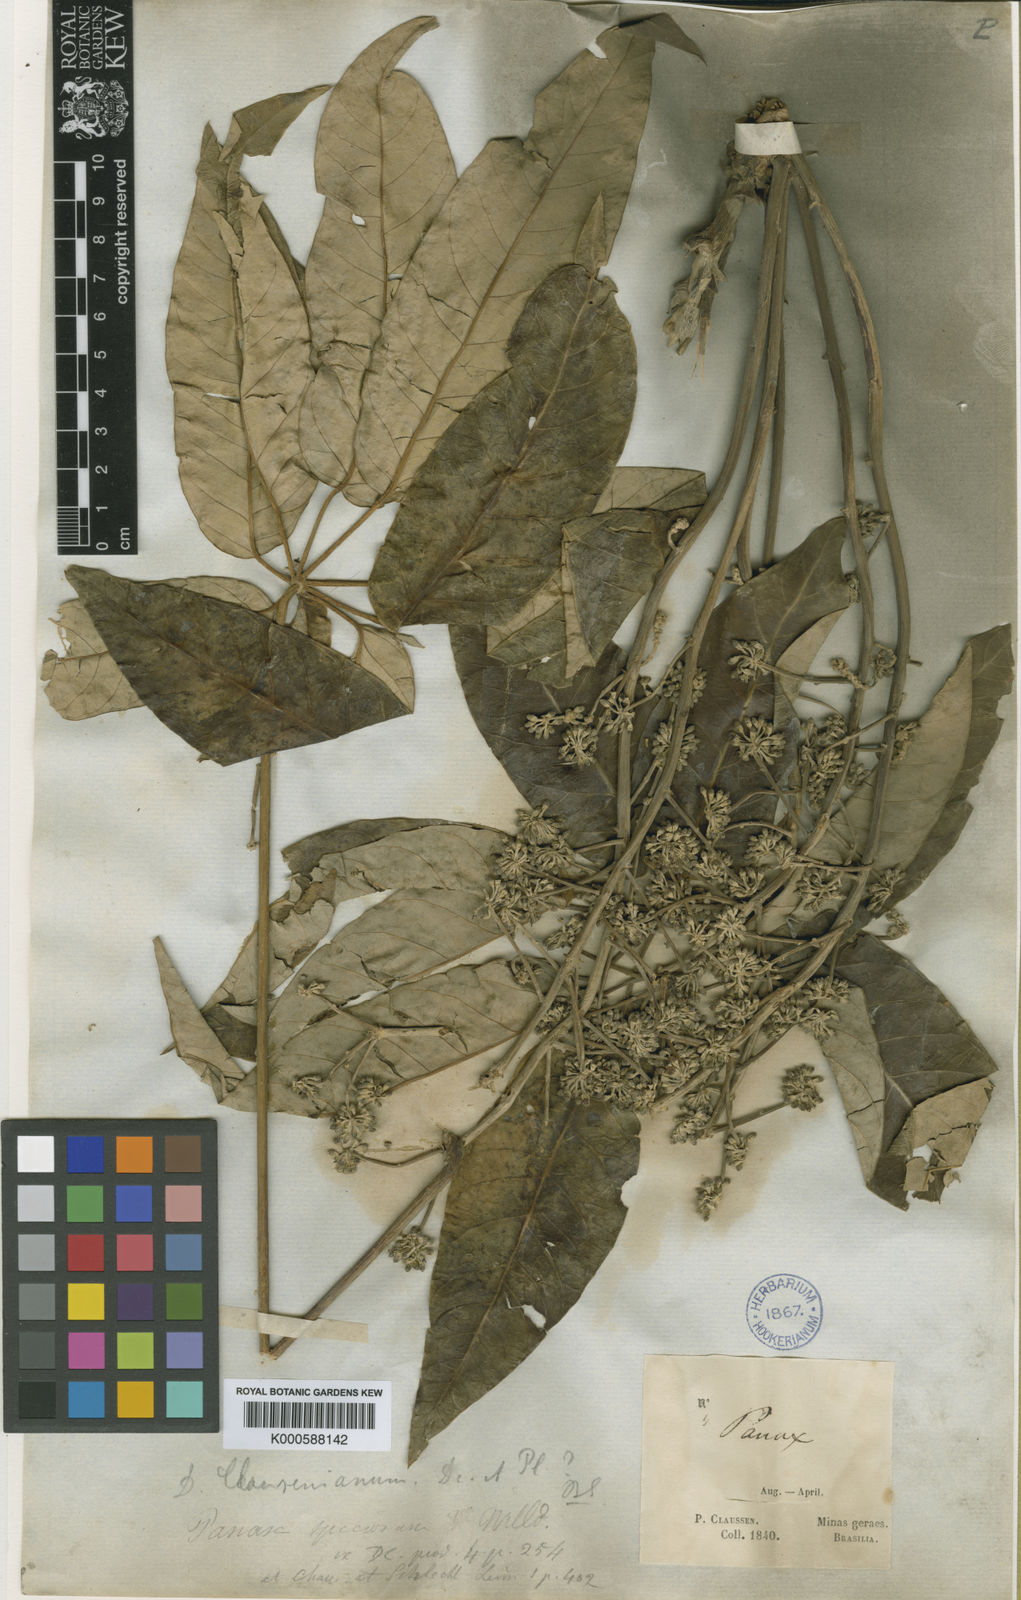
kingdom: Plantae
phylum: Tracheophyta
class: Magnoliopsida
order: Apiales
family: Araliaceae
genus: Didymopanax
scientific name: Didymopanax calvus
